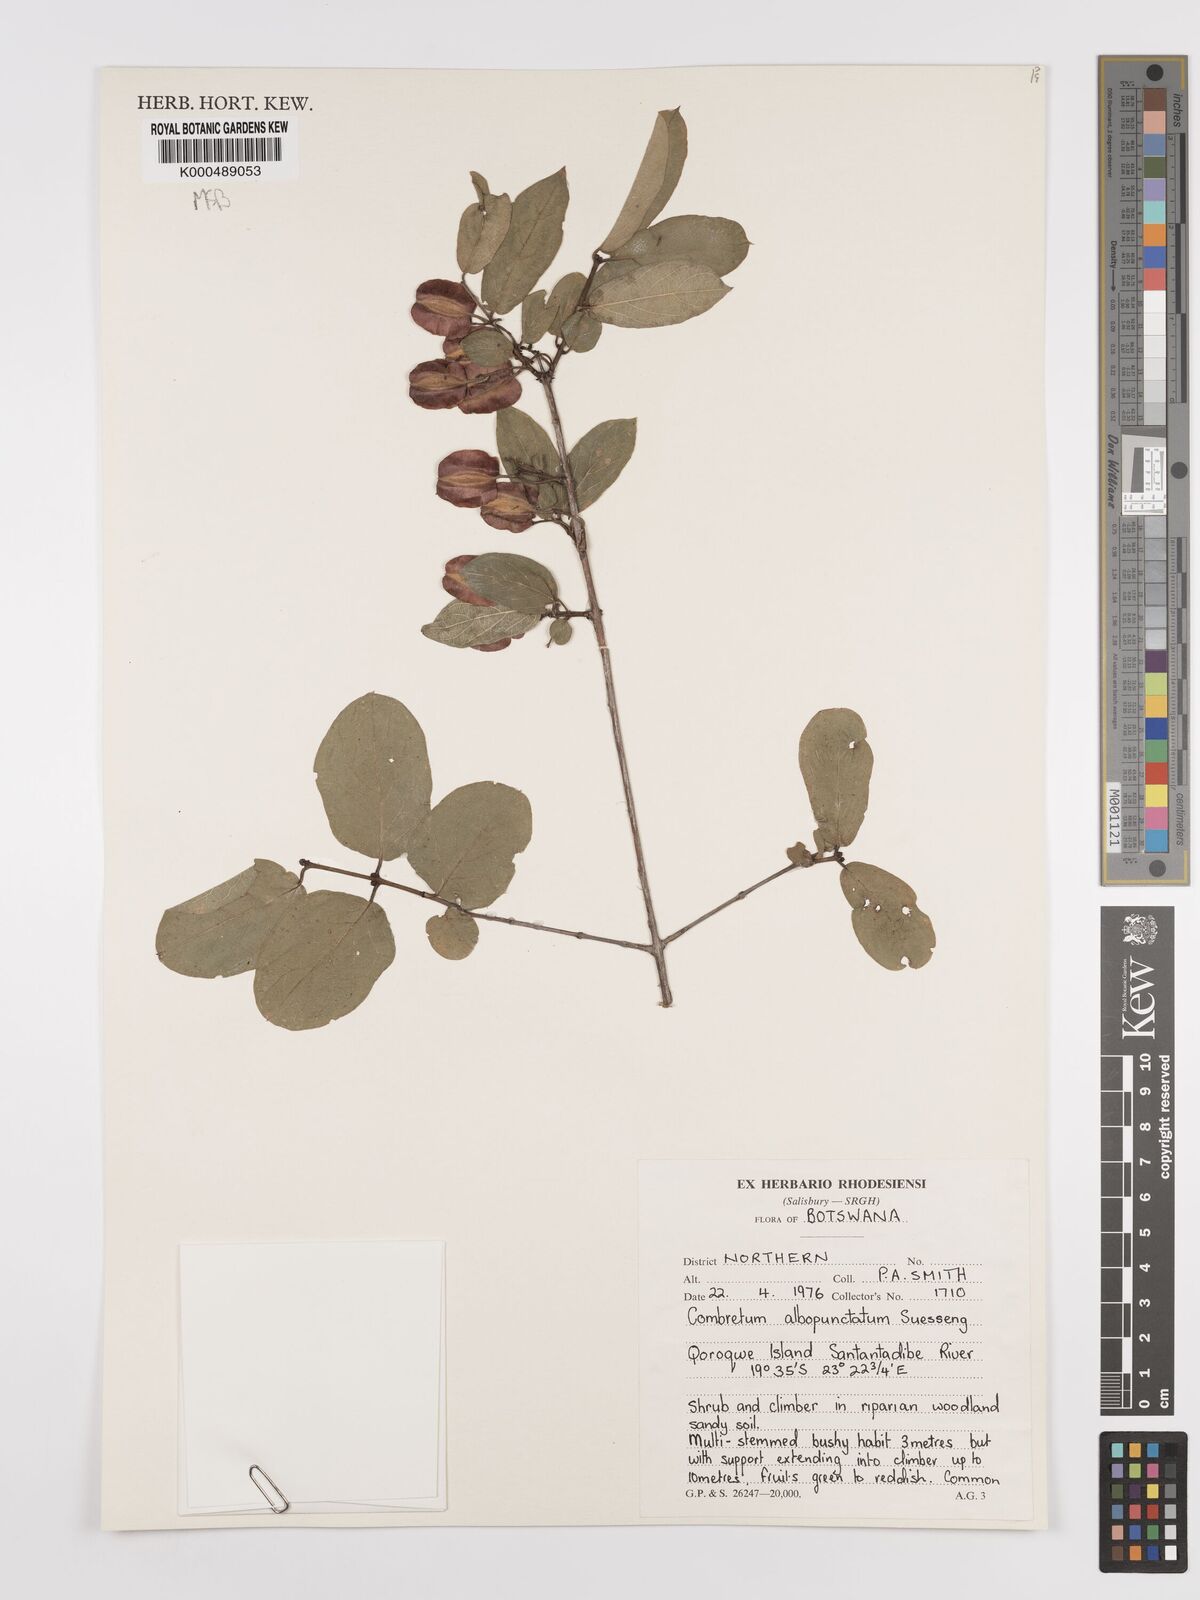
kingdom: Plantae
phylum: Tracheophyta
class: Magnoliopsida
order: Myrtales
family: Combretaceae
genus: Combretum
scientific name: Combretum albopunctatum
